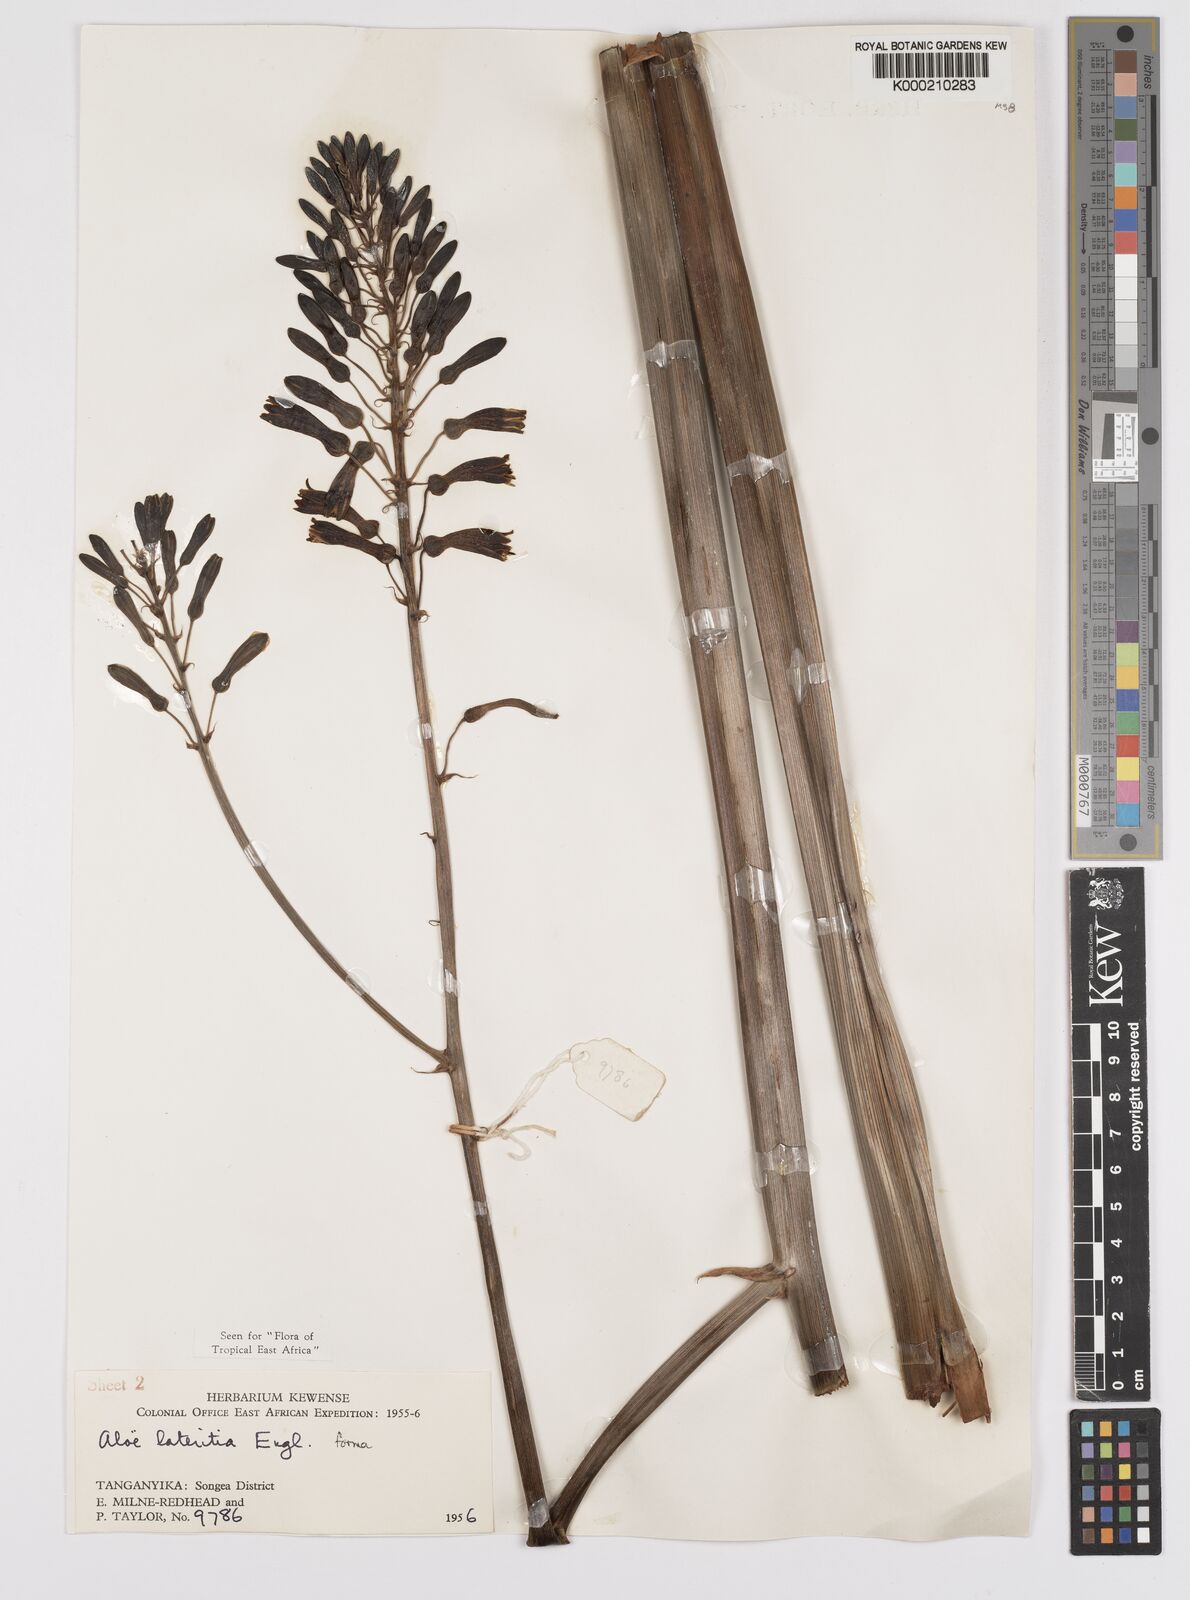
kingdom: Plantae
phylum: Tracheophyta
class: Liliopsida
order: Asparagales
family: Asphodelaceae
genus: Aloe
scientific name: Aloe lateritia
